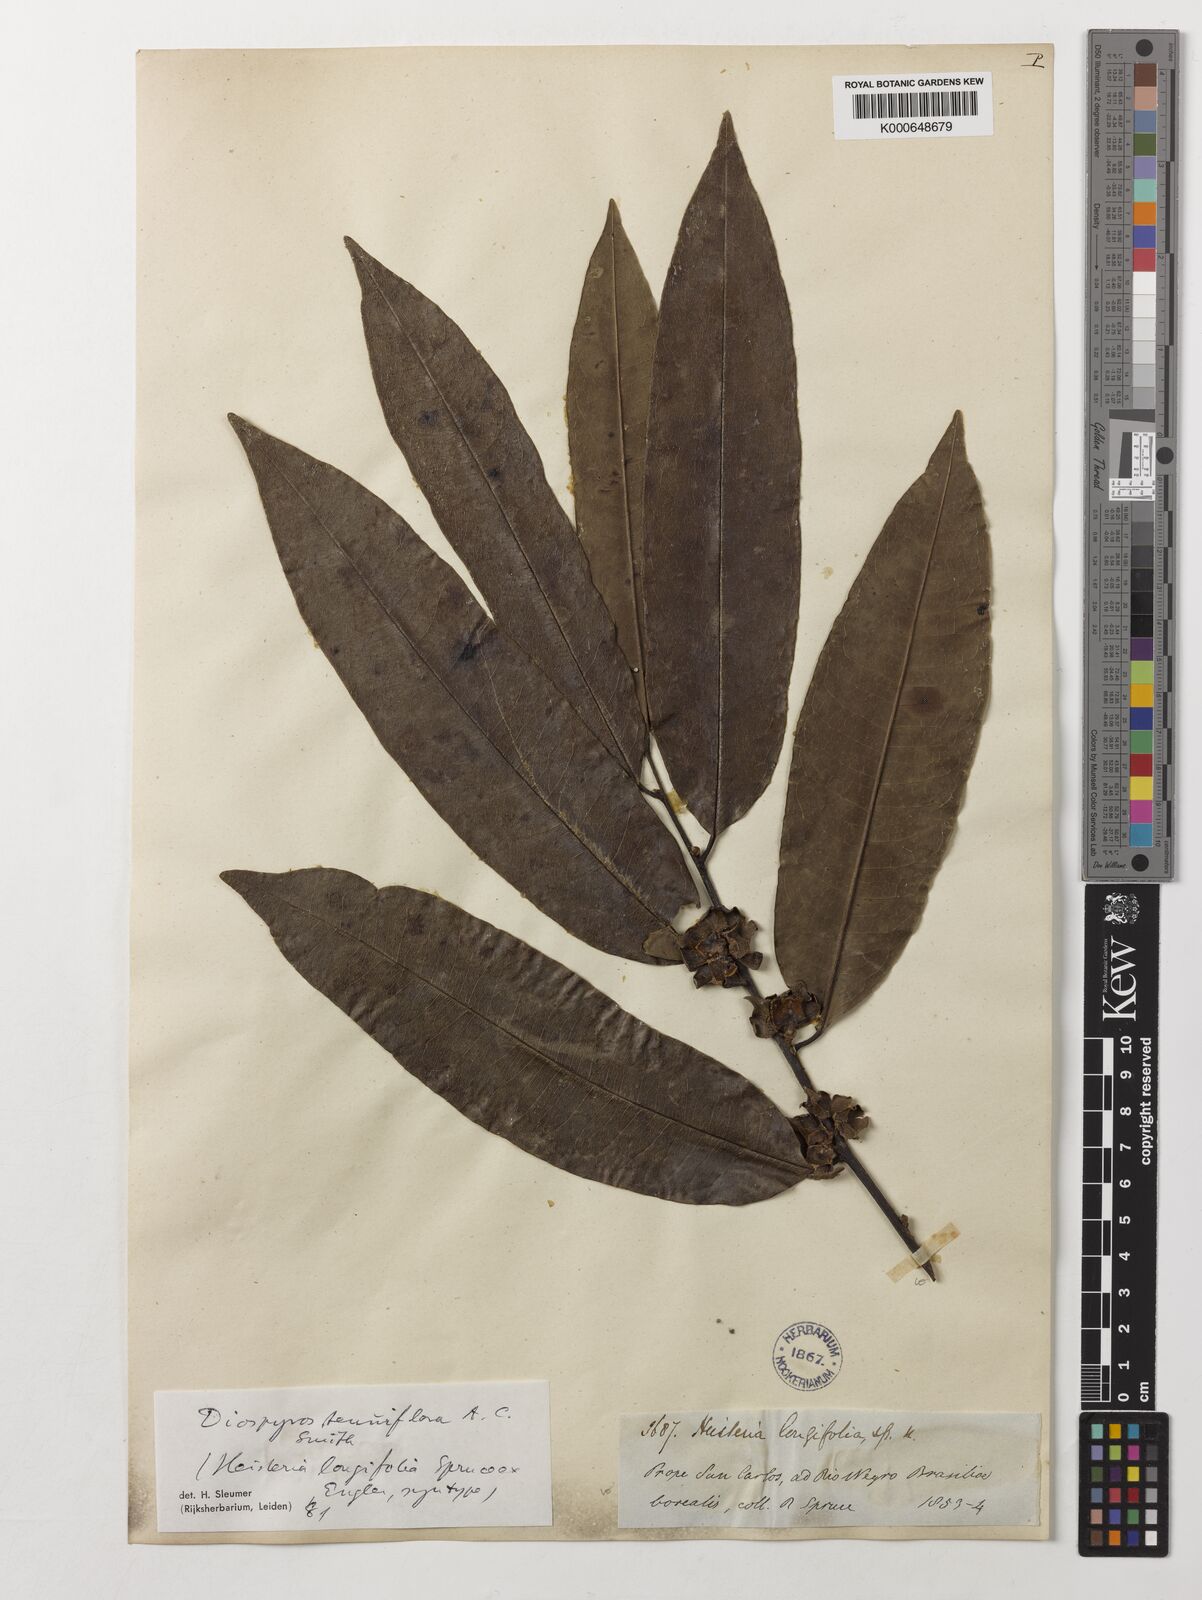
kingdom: Plantae
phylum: Tracheophyta
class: Magnoliopsida
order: Ericales
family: Ebenaceae
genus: Diospyros
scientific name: Diospyros tenuiflora
